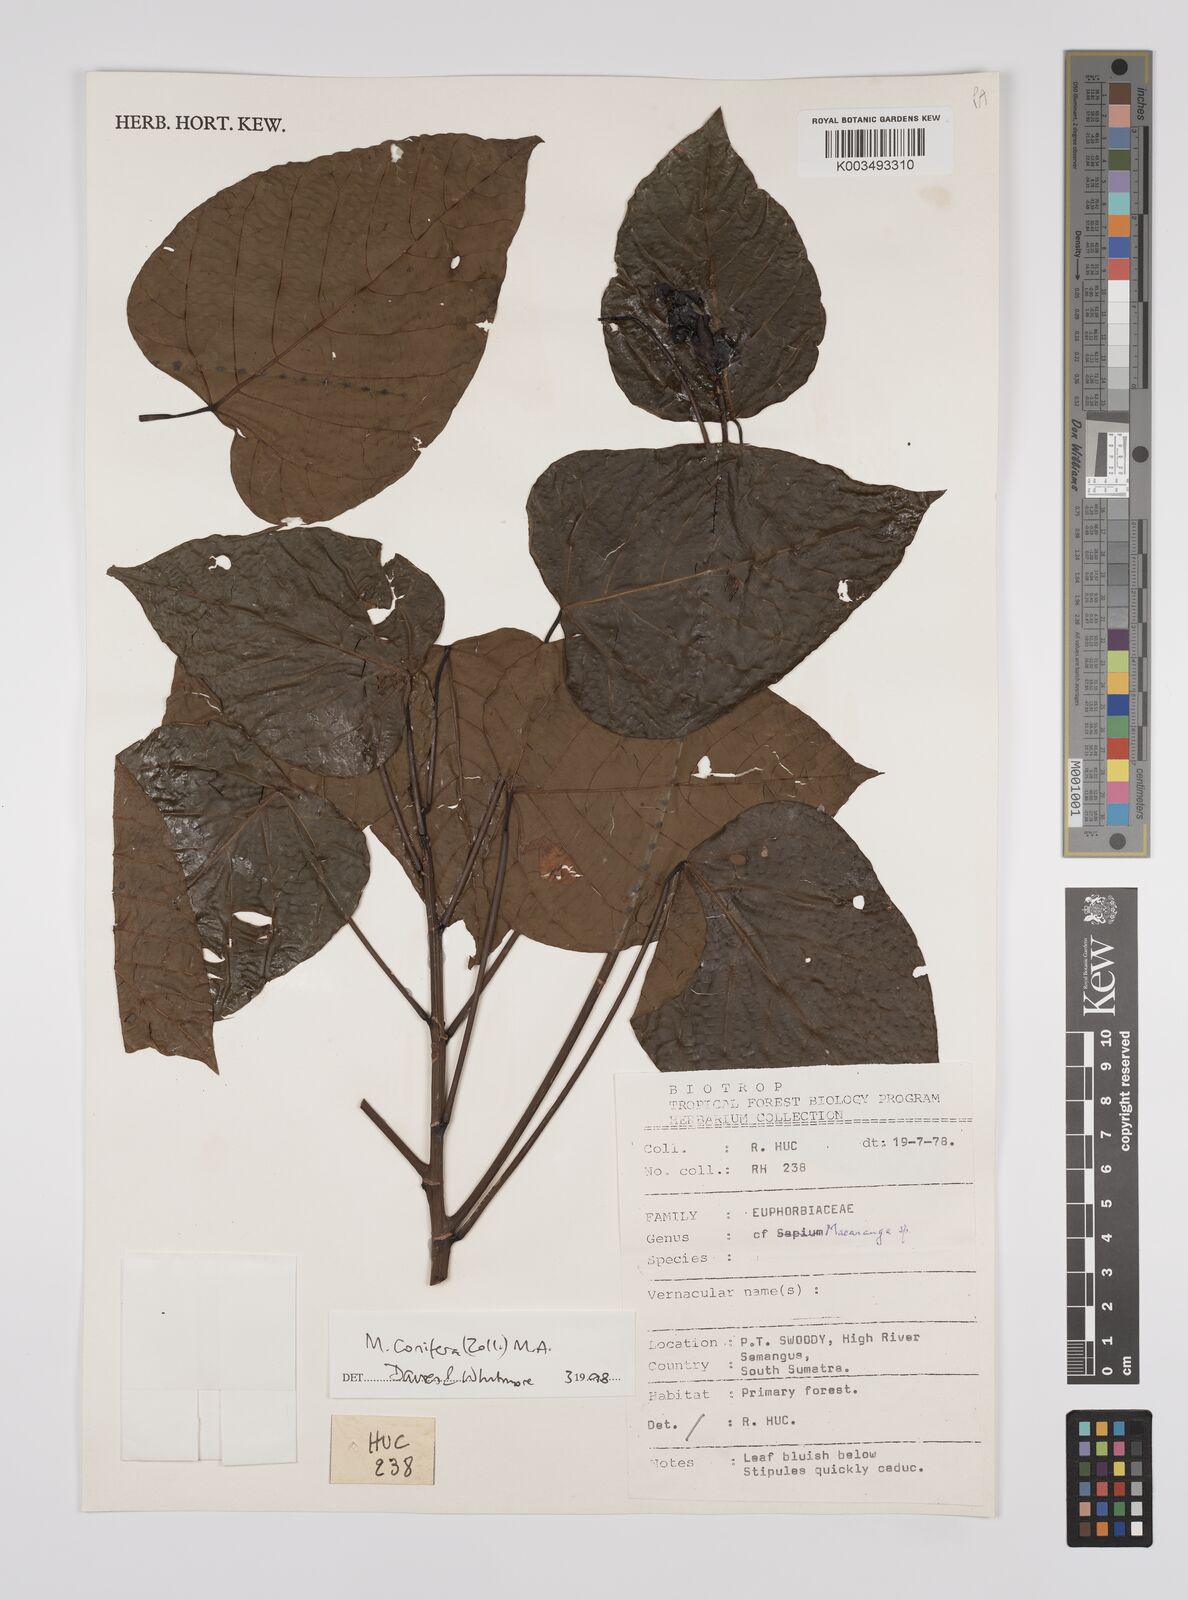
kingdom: Plantae
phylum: Tracheophyta
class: Magnoliopsida
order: Malpighiales
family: Euphorbiaceae
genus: Macaranga
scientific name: Macaranga conifera
